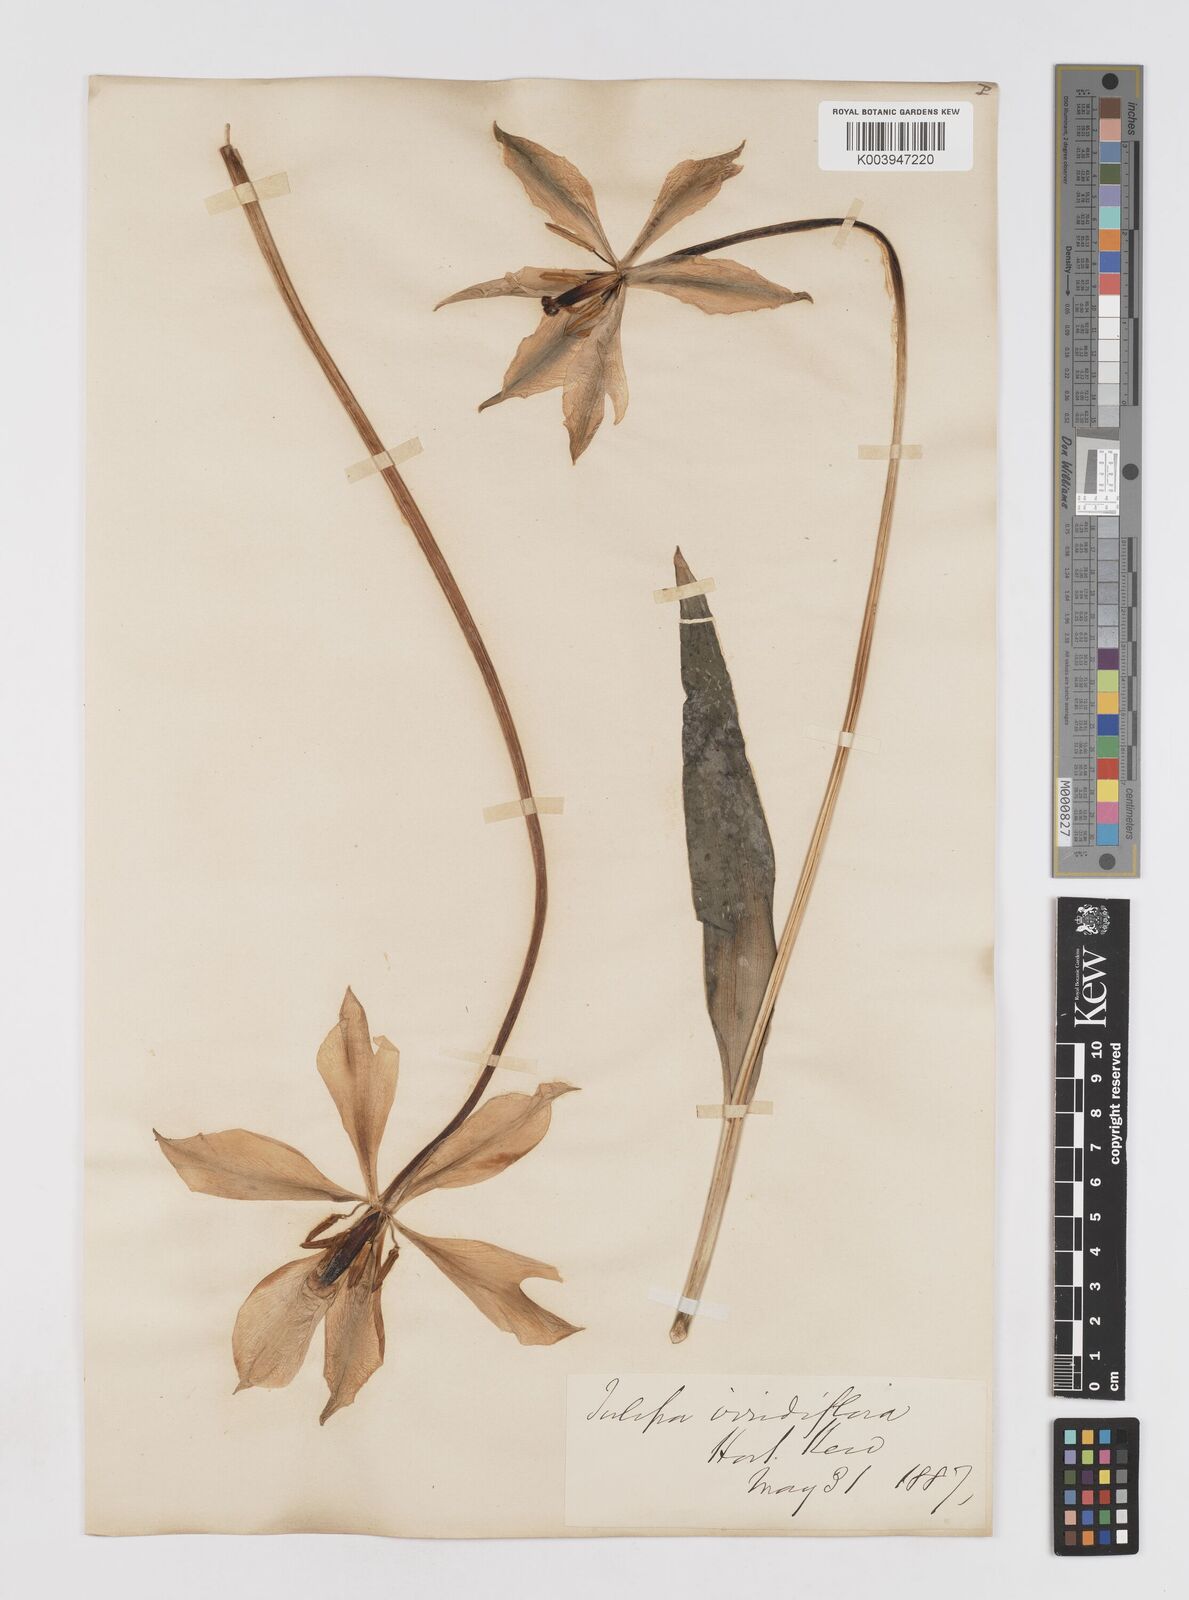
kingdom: Plantae
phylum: Tracheophyta
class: Liliopsida
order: Liliales
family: Liliaceae
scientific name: Liliaceae
